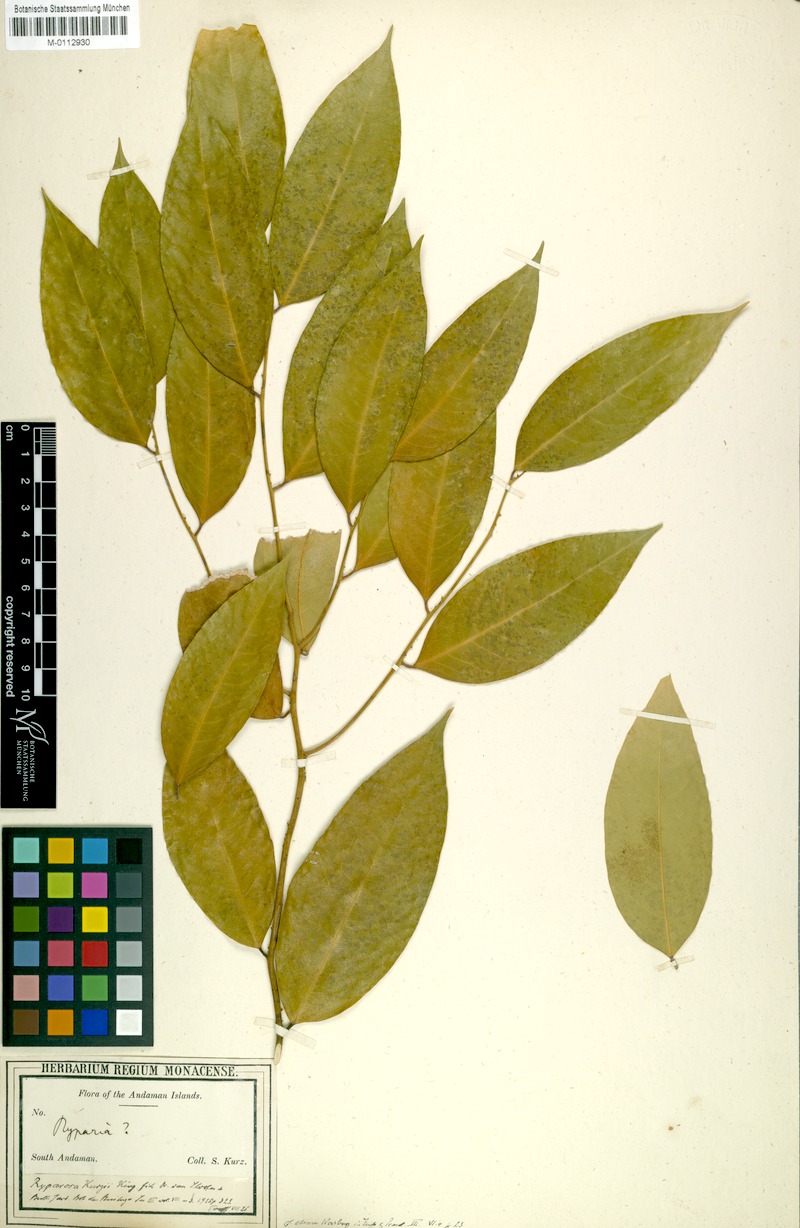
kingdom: Plantae
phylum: Tracheophyta
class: Magnoliopsida
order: Malpighiales
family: Achariaceae
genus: Ryparosa
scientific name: Ryparosa javanica
